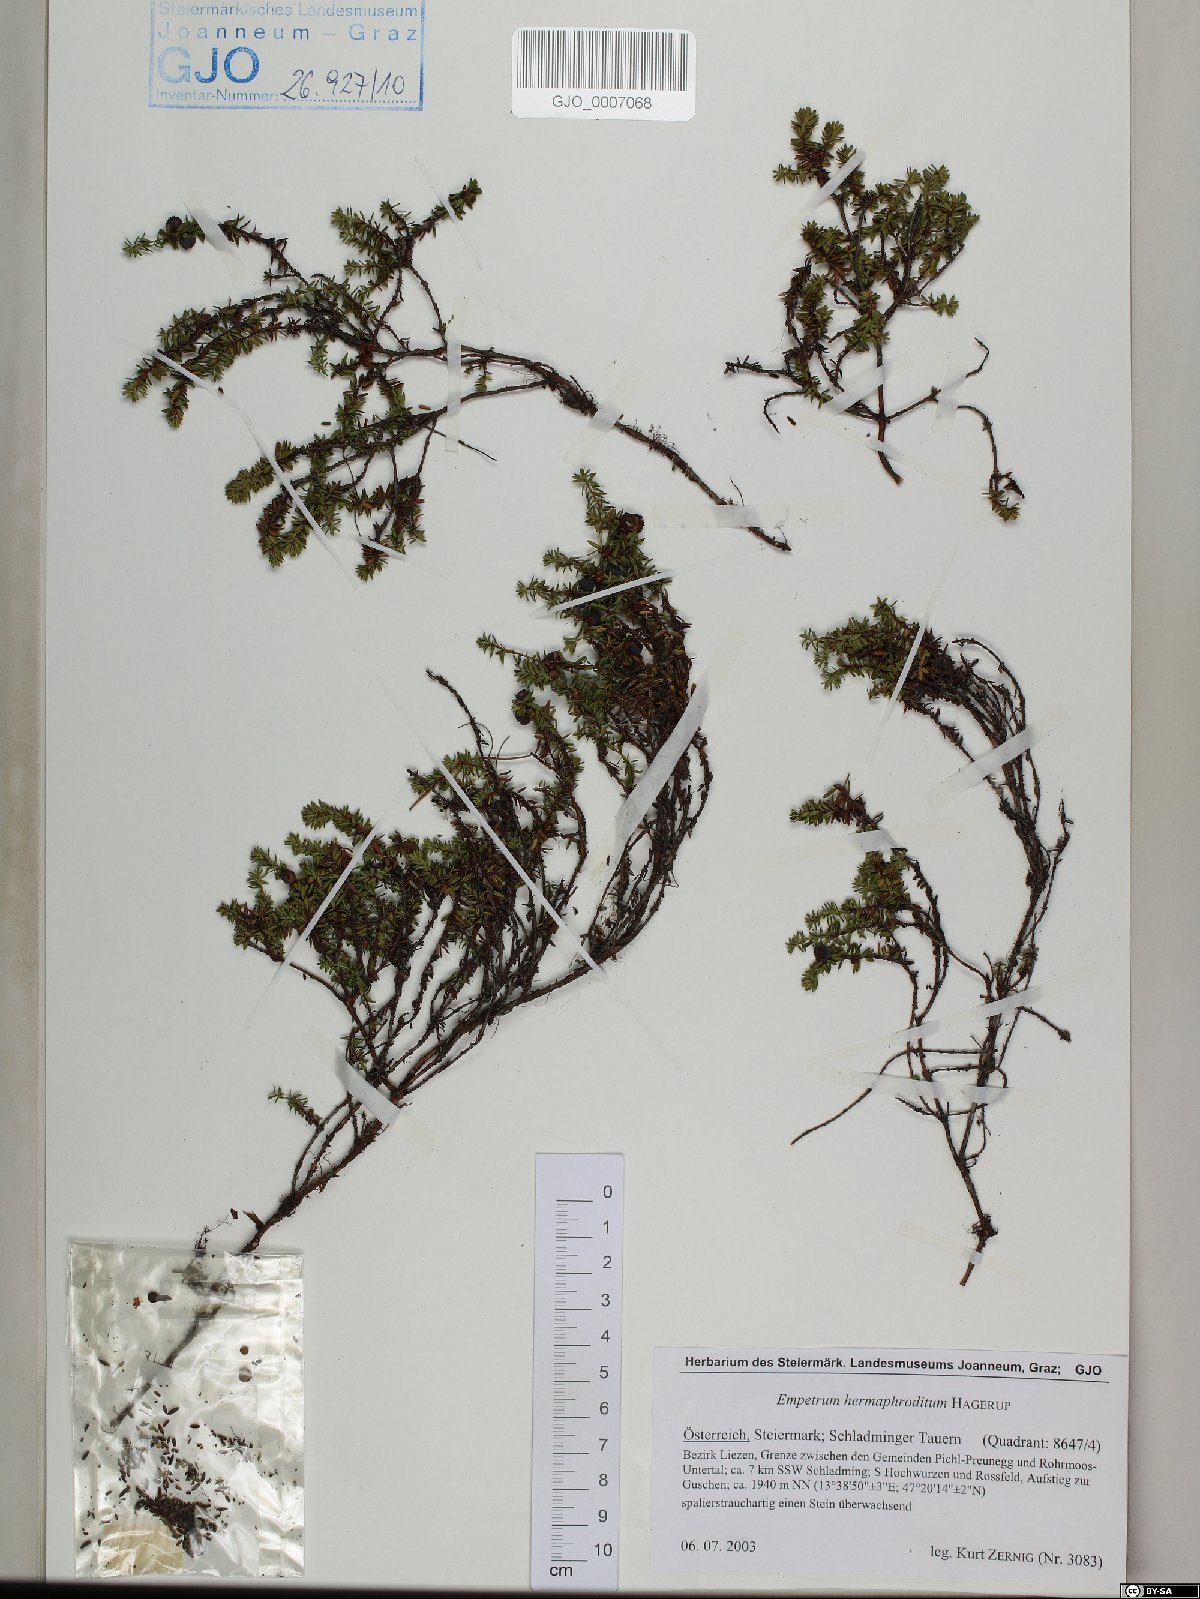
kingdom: Plantae
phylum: Tracheophyta
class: Magnoliopsida
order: Ericales
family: Ericaceae
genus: Empetrum
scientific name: Empetrum hermaphroditum
